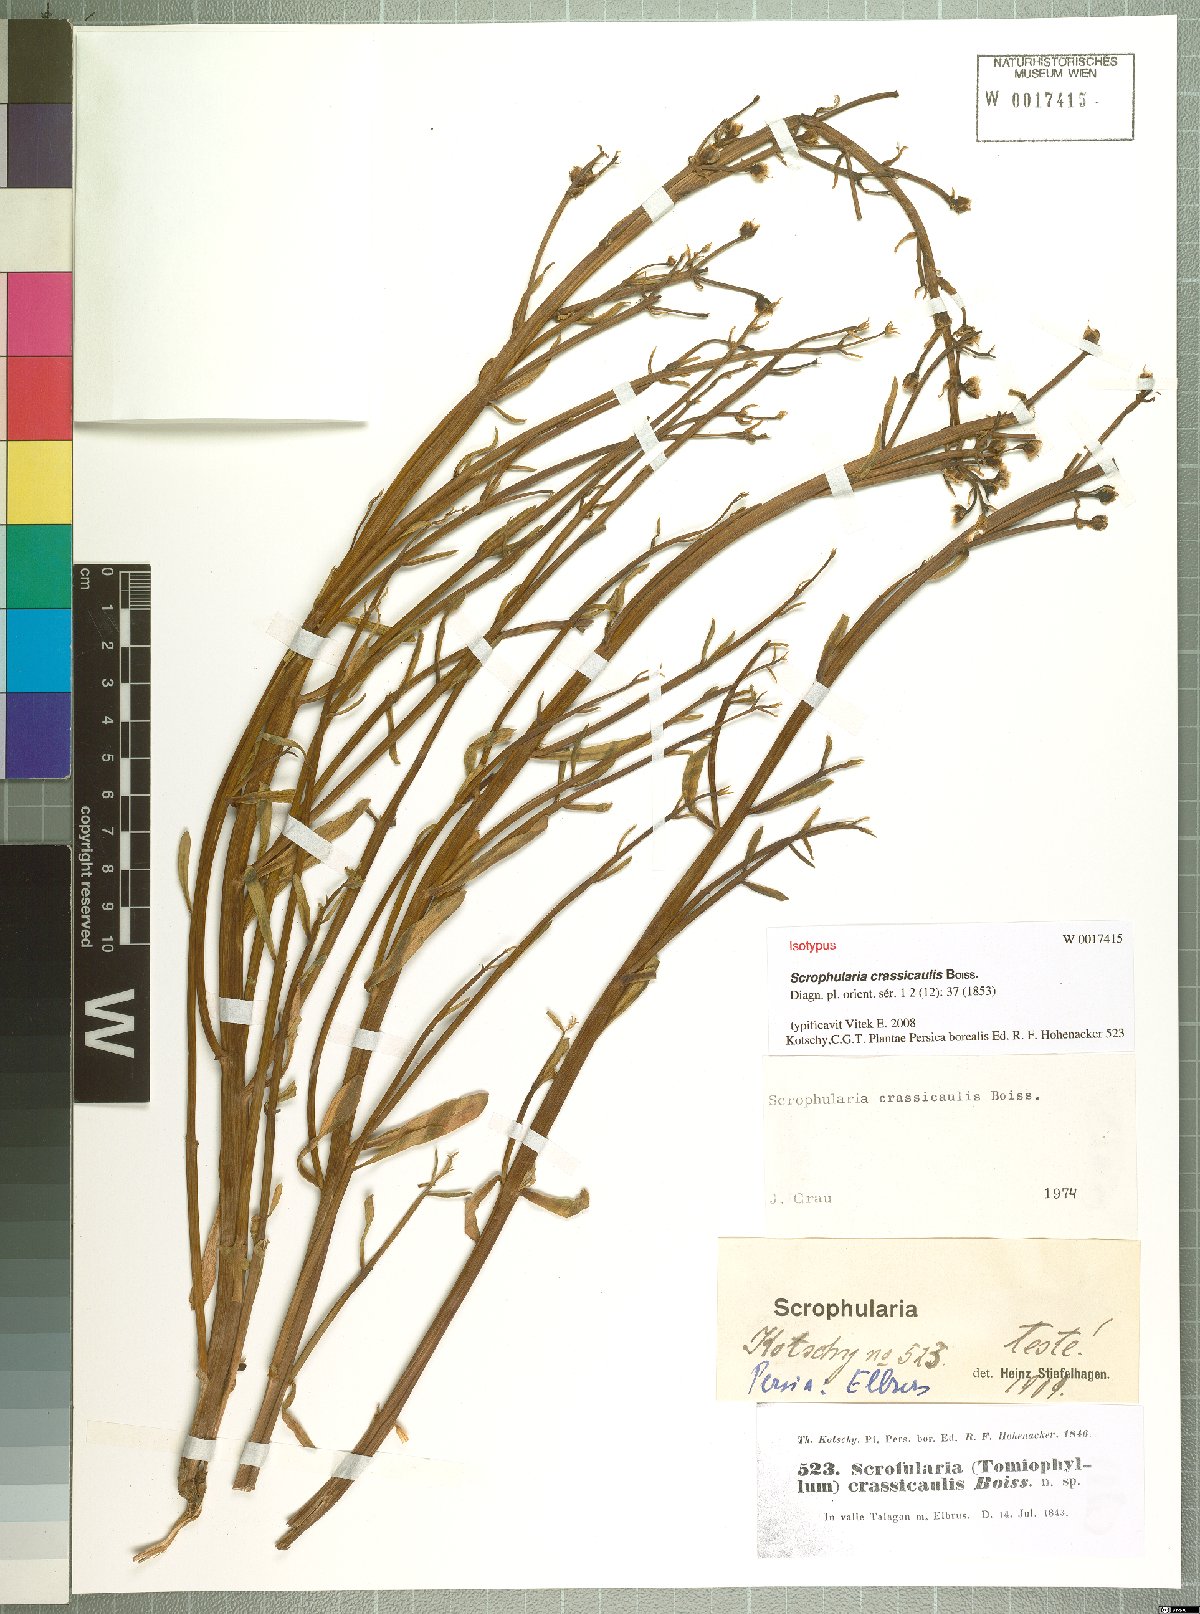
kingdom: Plantae
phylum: Tracheophyta
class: Magnoliopsida
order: Lamiales
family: Scrophulariaceae
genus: Scrophularia
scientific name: Scrophularia crassicaulis
